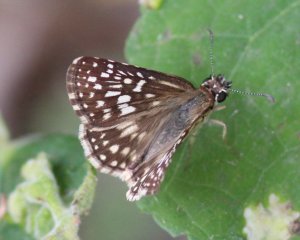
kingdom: Animalia
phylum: Arthropoda
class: Insecta
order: Lepidoptera
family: Hesperiidae
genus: Pyrgus
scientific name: Pyrgus oileus
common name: Tropical Checkered-Skipper
